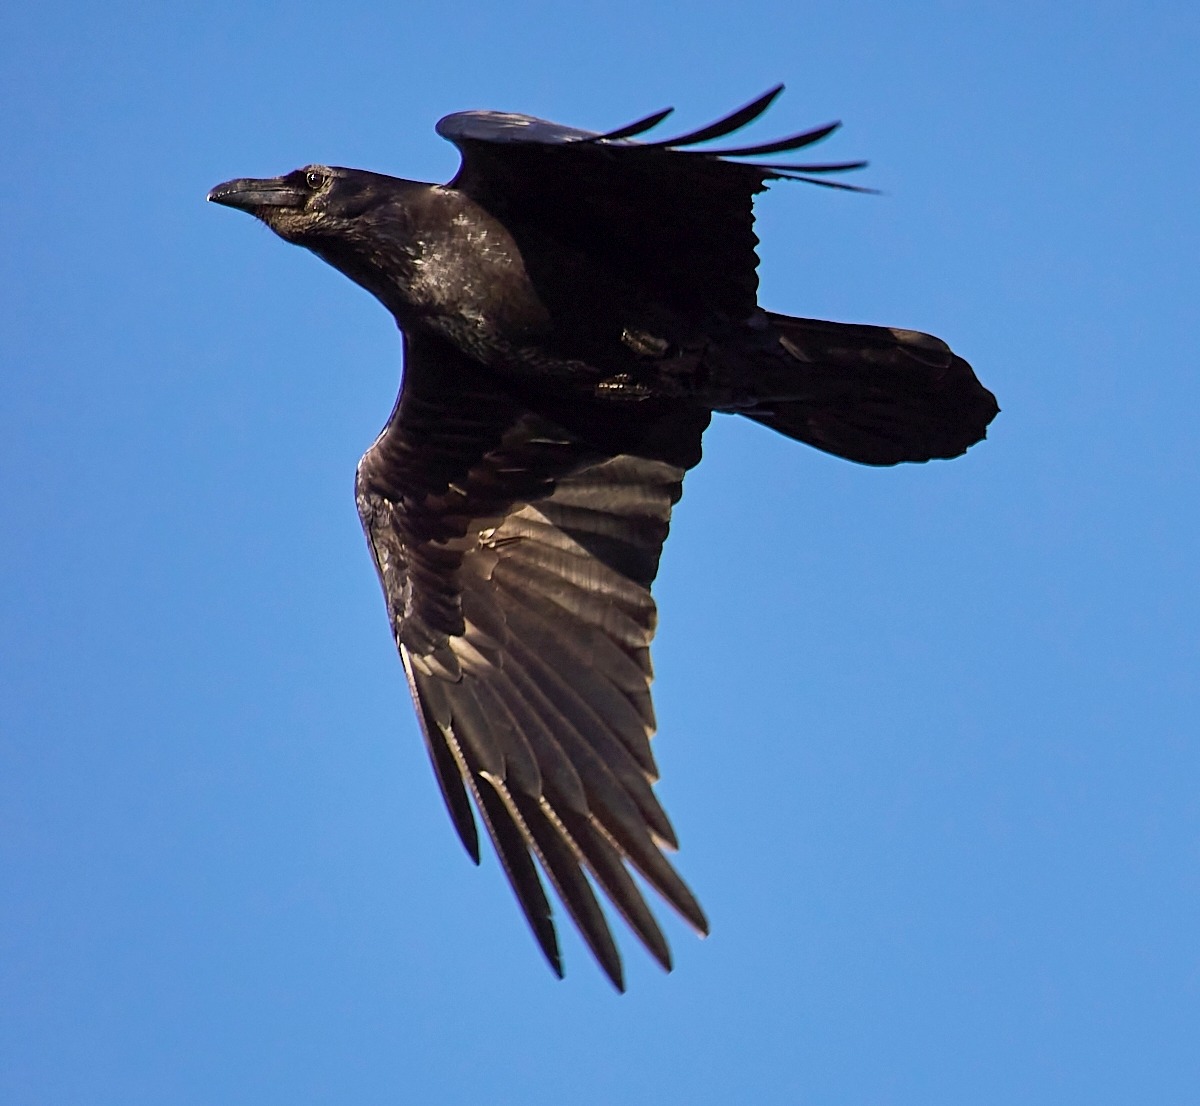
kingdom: Animalia
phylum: Chordata
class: Aves
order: Passeriformes
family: Corvidae
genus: Corvus
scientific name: Corvus corax
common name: Ravn
